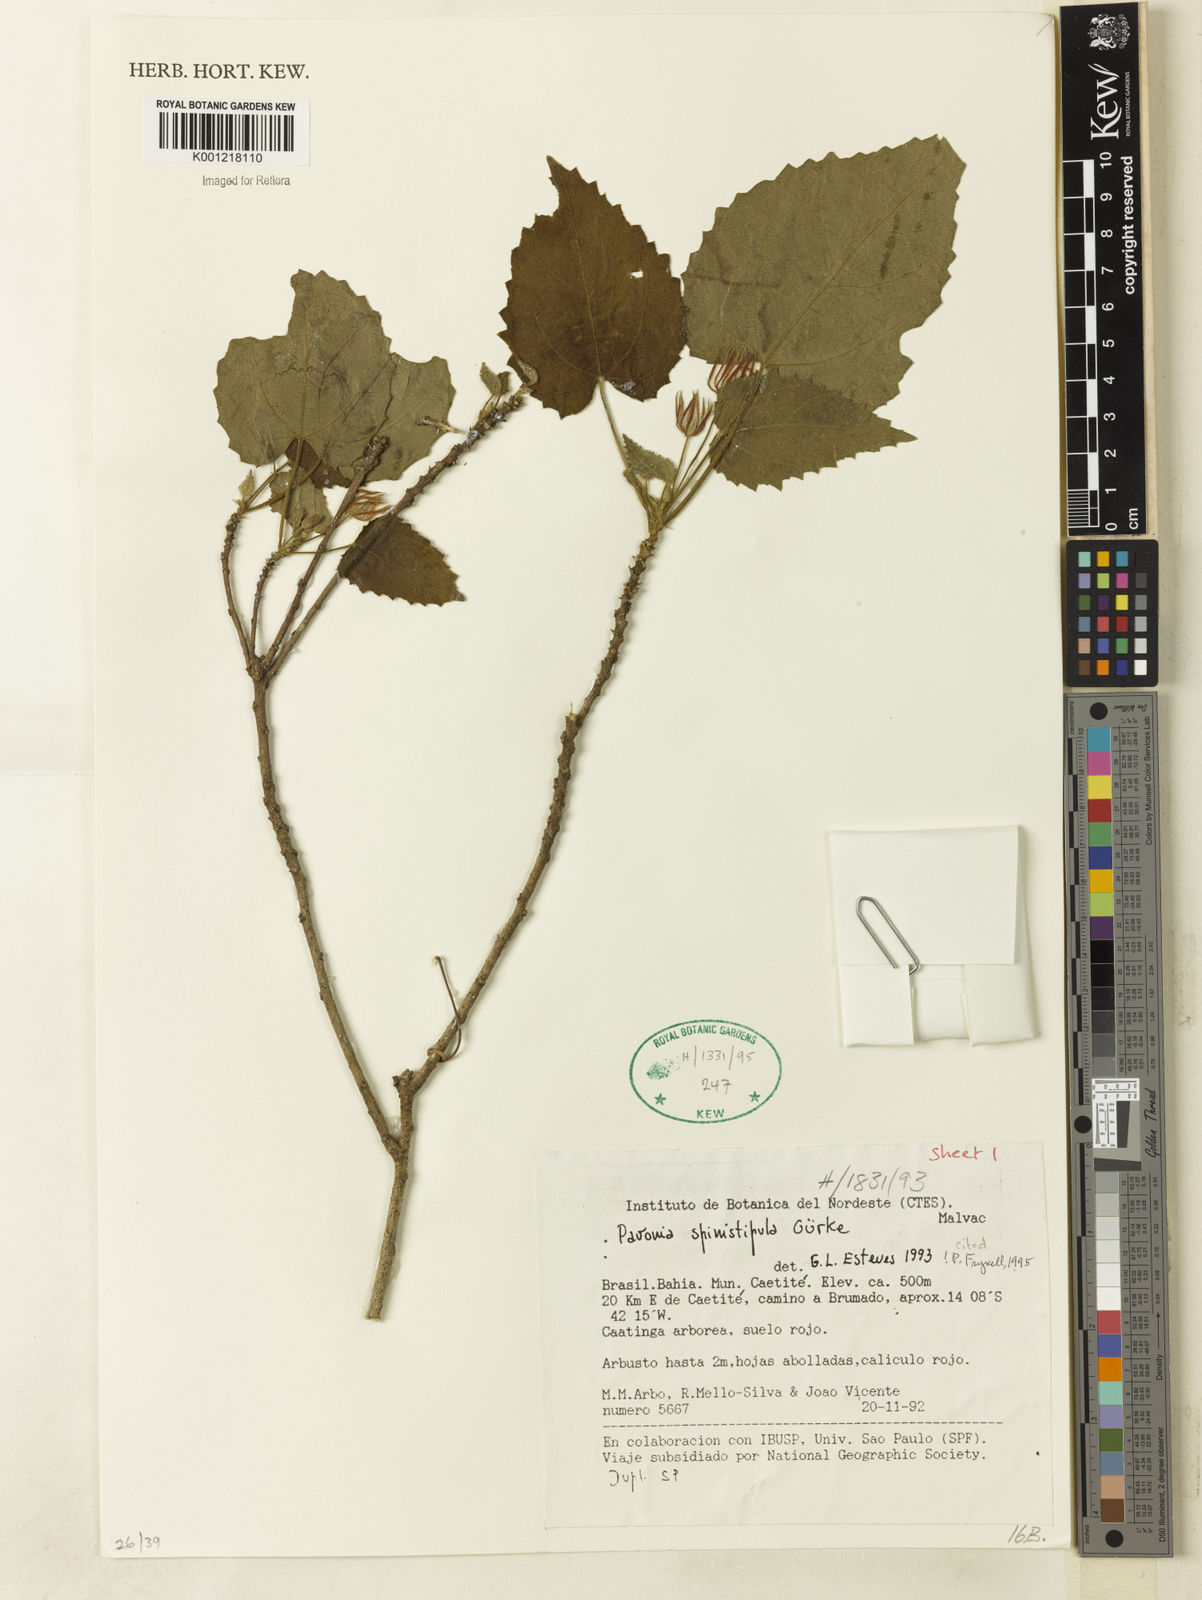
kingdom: Plantae
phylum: Tracheophyta
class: Magnoliopsida
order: Malvales
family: Malvaceae
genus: Pavonia
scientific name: Pavonia
